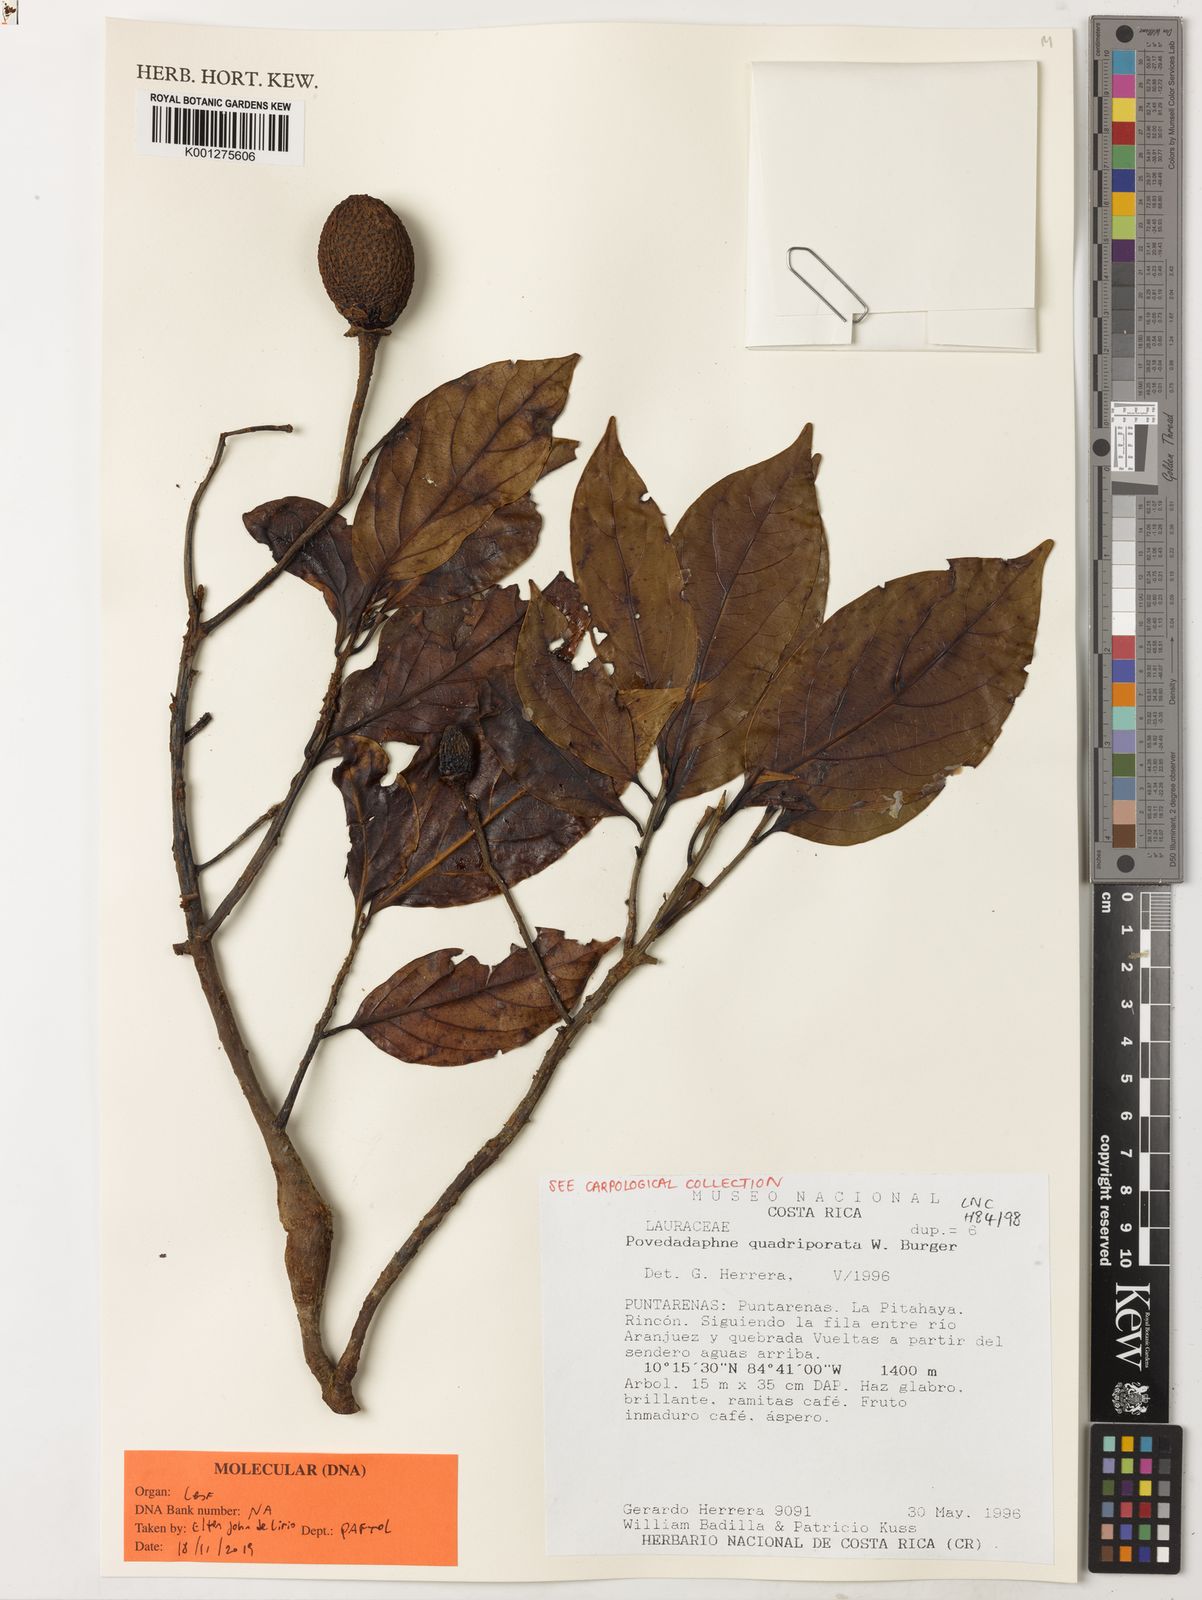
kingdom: Plantae
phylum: Tracheophyta
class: Magnoliopsida
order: Laurales
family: Lauraceae
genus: Ocotea
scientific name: Ocotea quadriporata
